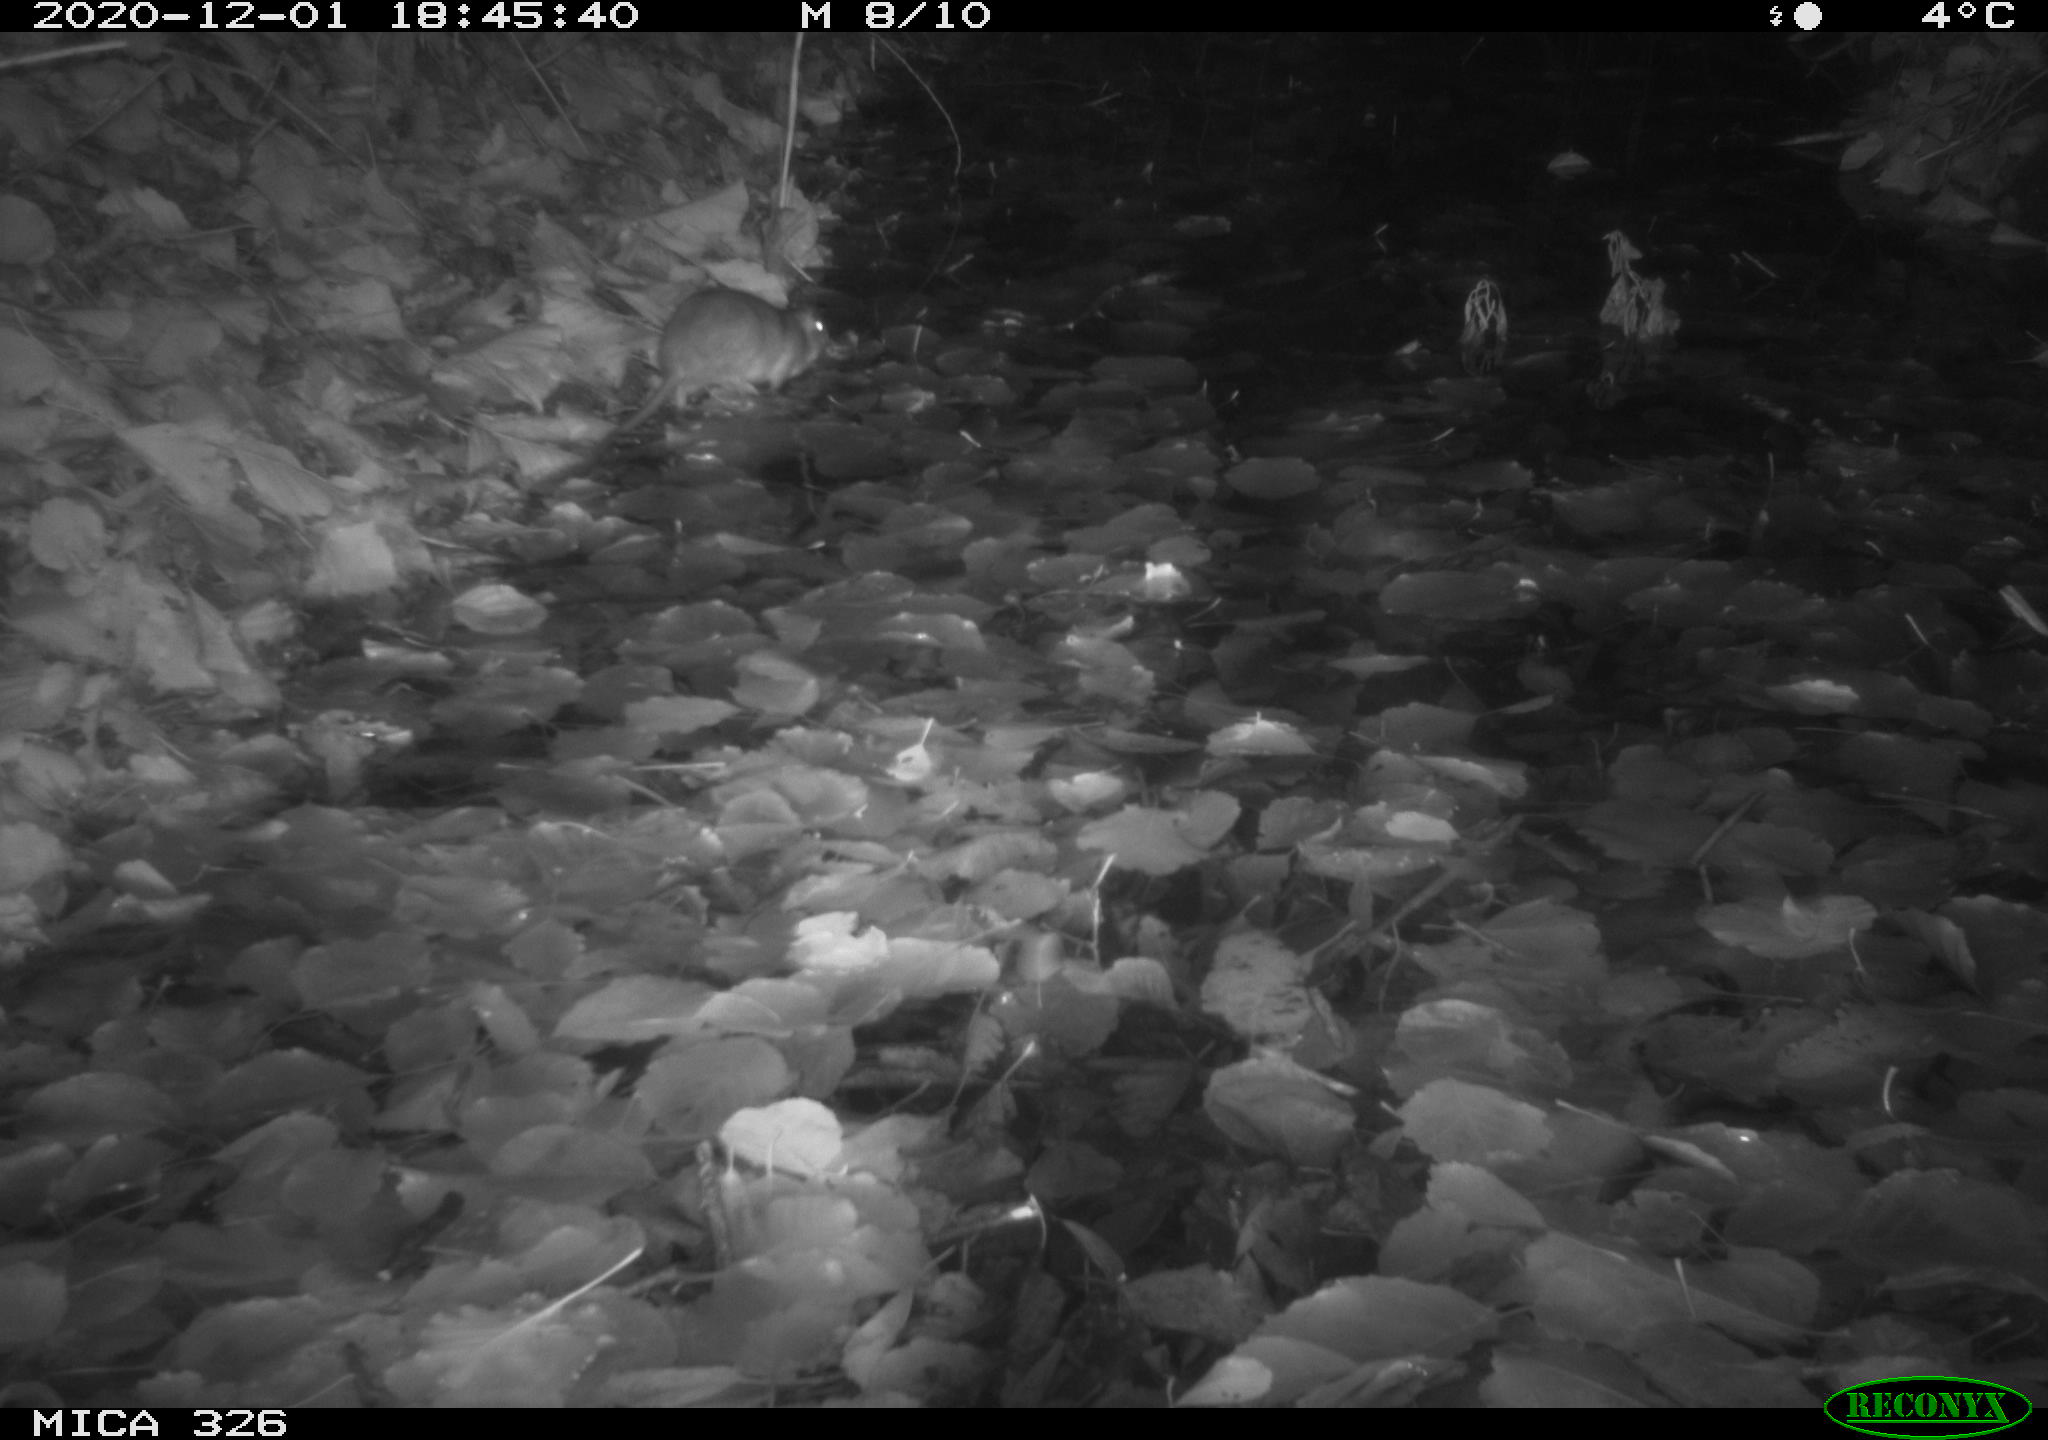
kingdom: Animalia
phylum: Chordata
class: Mammalia
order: Rodentia
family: Muridae
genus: Rattus
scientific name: Rattus norvegicus
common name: Brown rat
